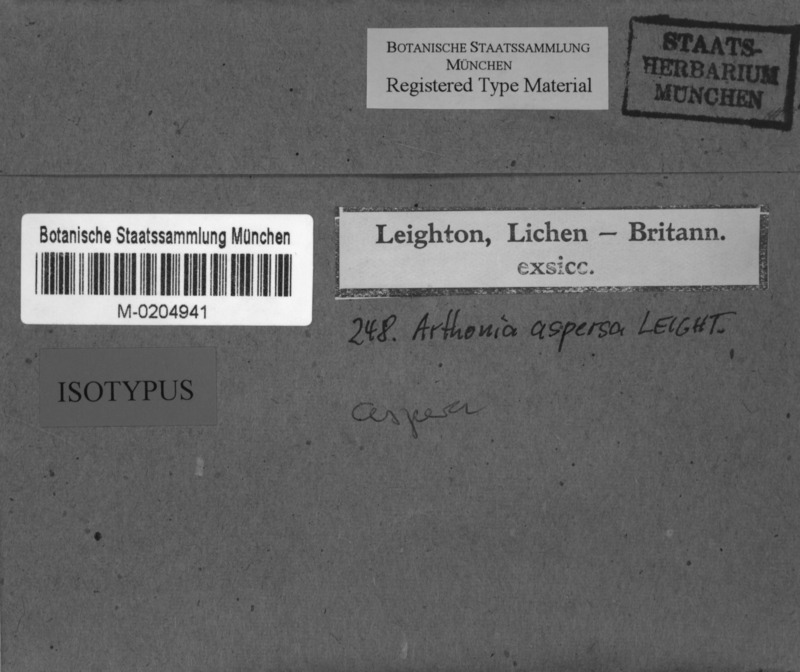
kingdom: Fungi
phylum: Ascomycota
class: Arthoniomycetes
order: Arthoniales
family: Arthoniaceae
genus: Arthonia
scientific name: Arthonia arthonioides
